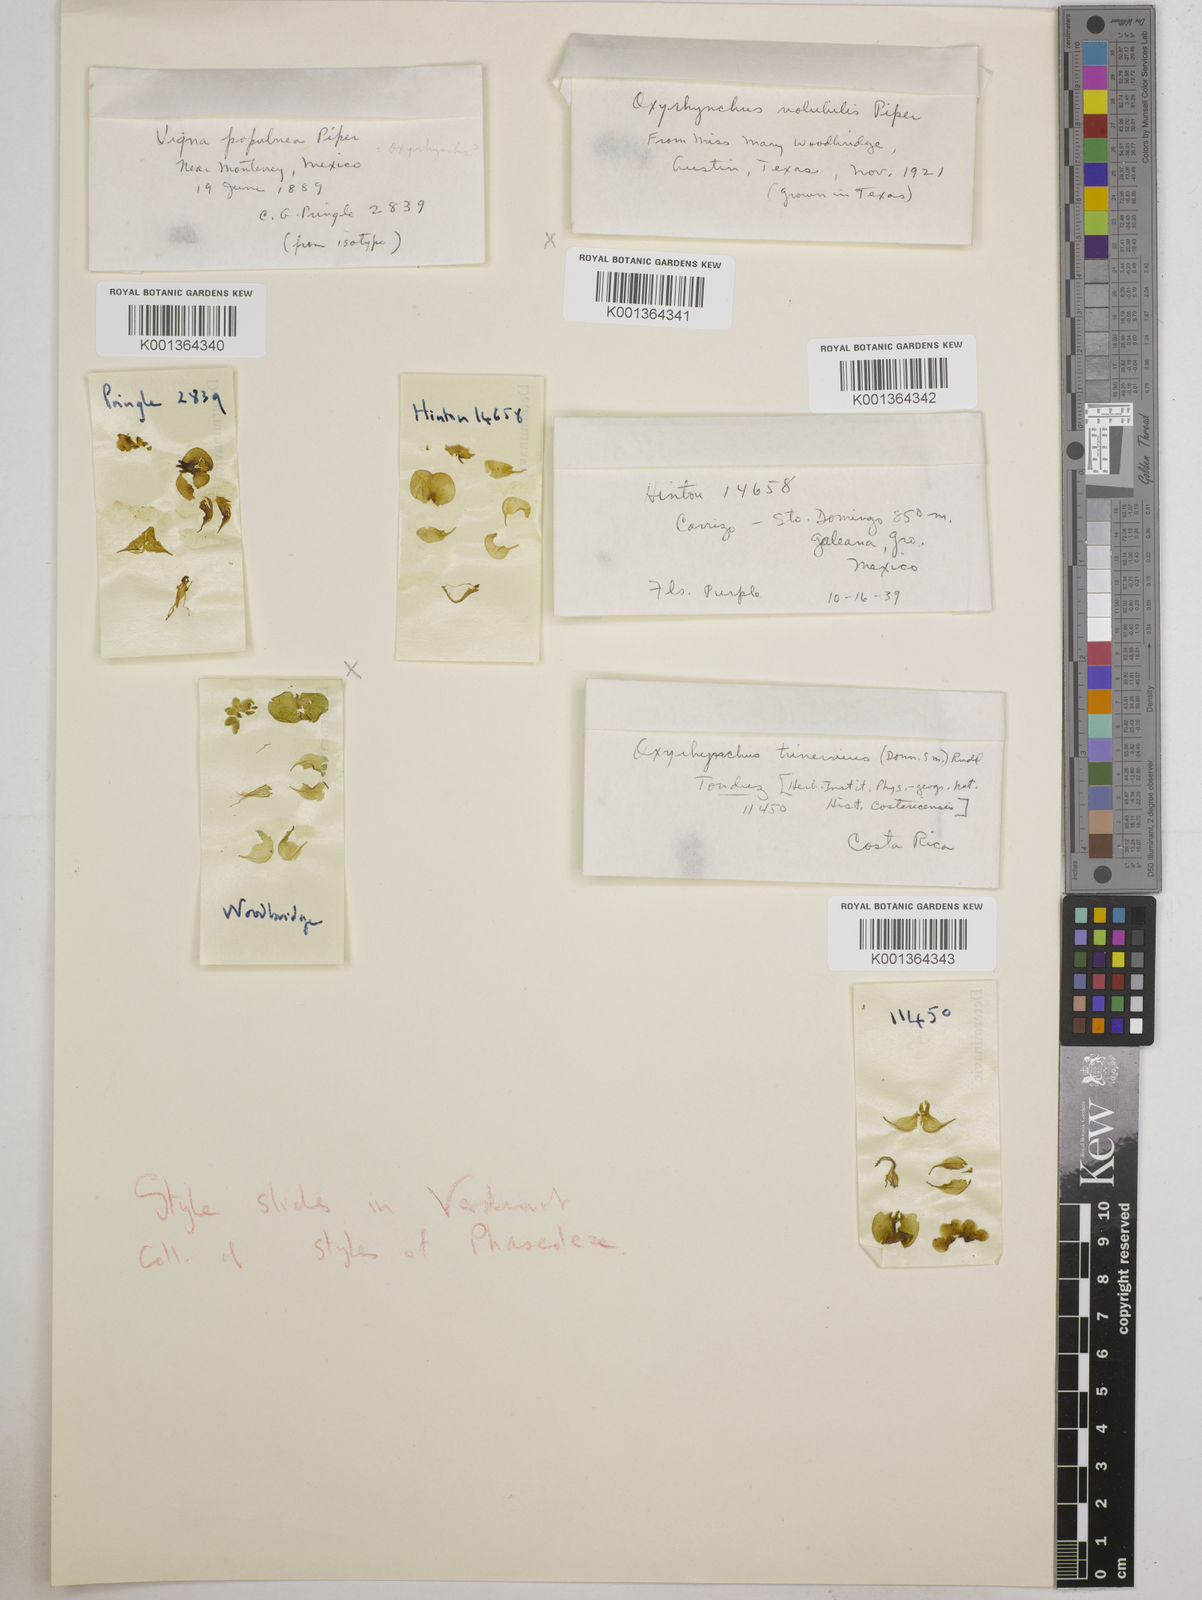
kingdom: Plantae
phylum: Tracheophyta
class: Magnoliopsida
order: Fabales
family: Fabaceae
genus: Oxyrhynchus
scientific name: Oxyrhynchus volubilis
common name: Twining bluehood
